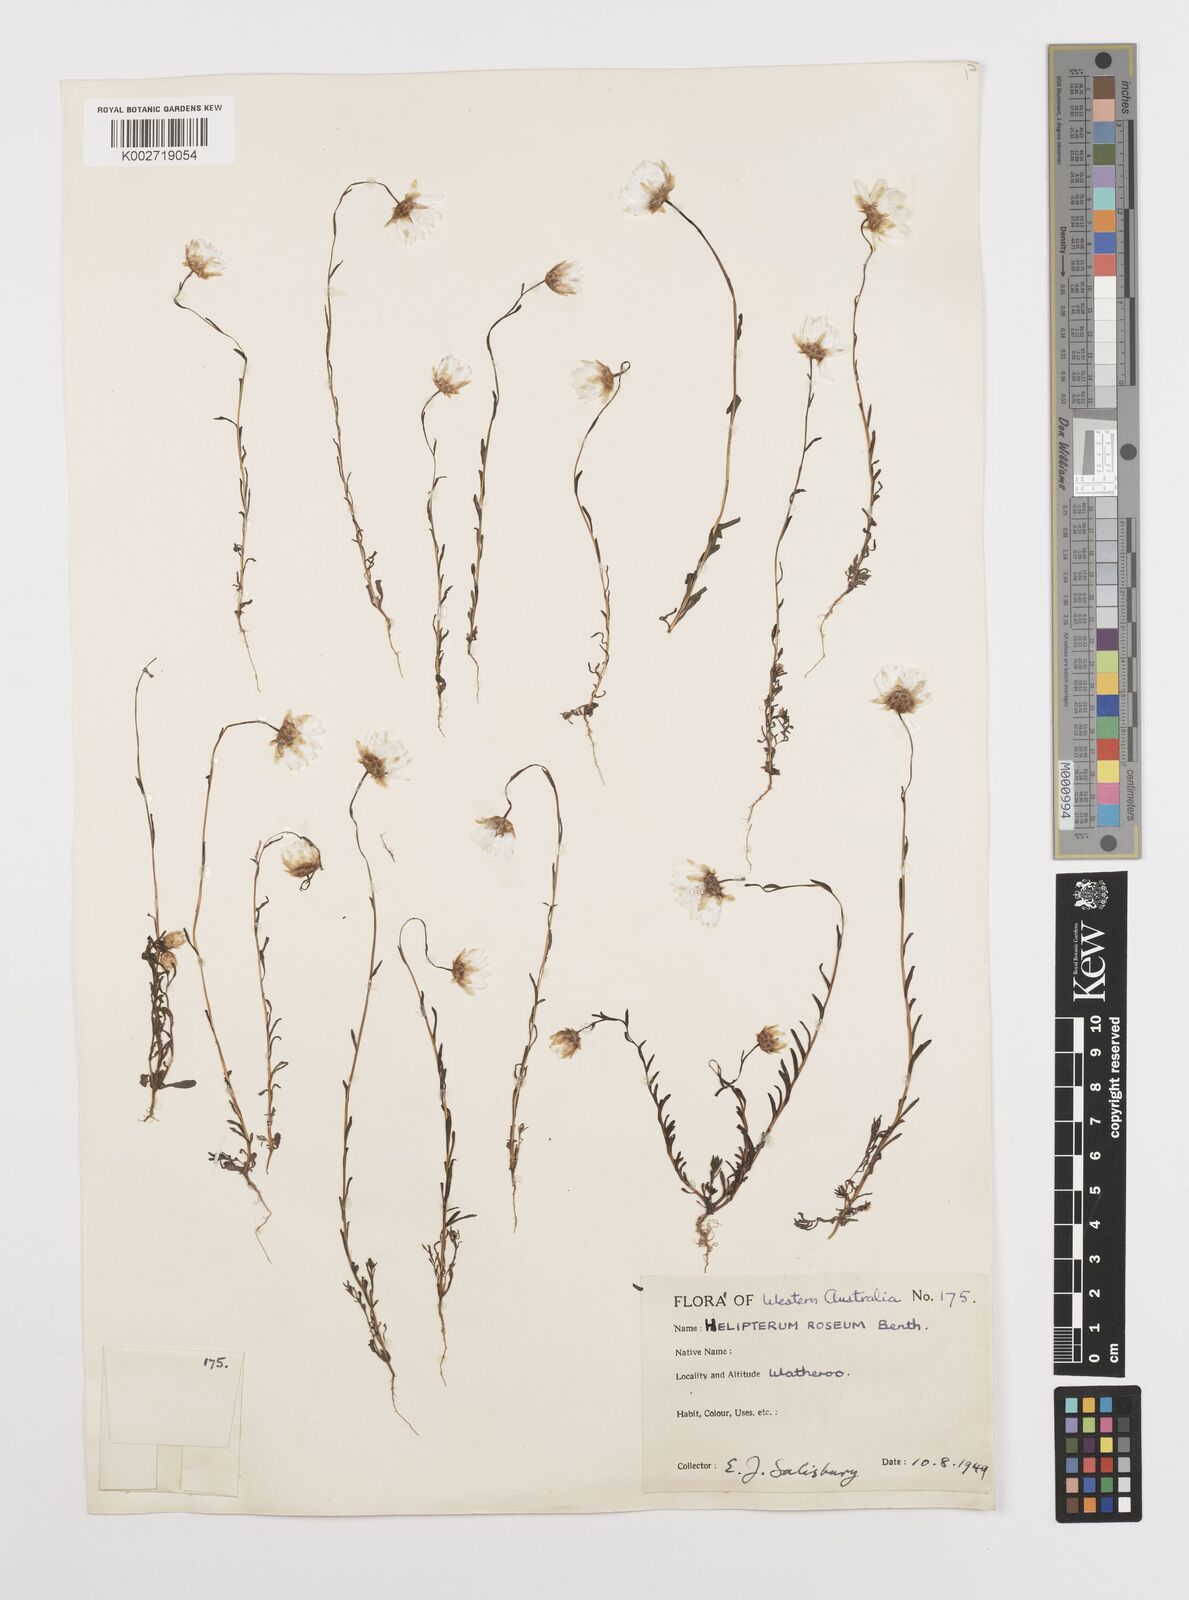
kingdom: Plantae
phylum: Tracheophyta
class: Magnoliopsida
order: Asterales
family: Asteraceae
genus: Rhodanthe
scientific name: Rhodanthe chlorocephala
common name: Rosy sunray
